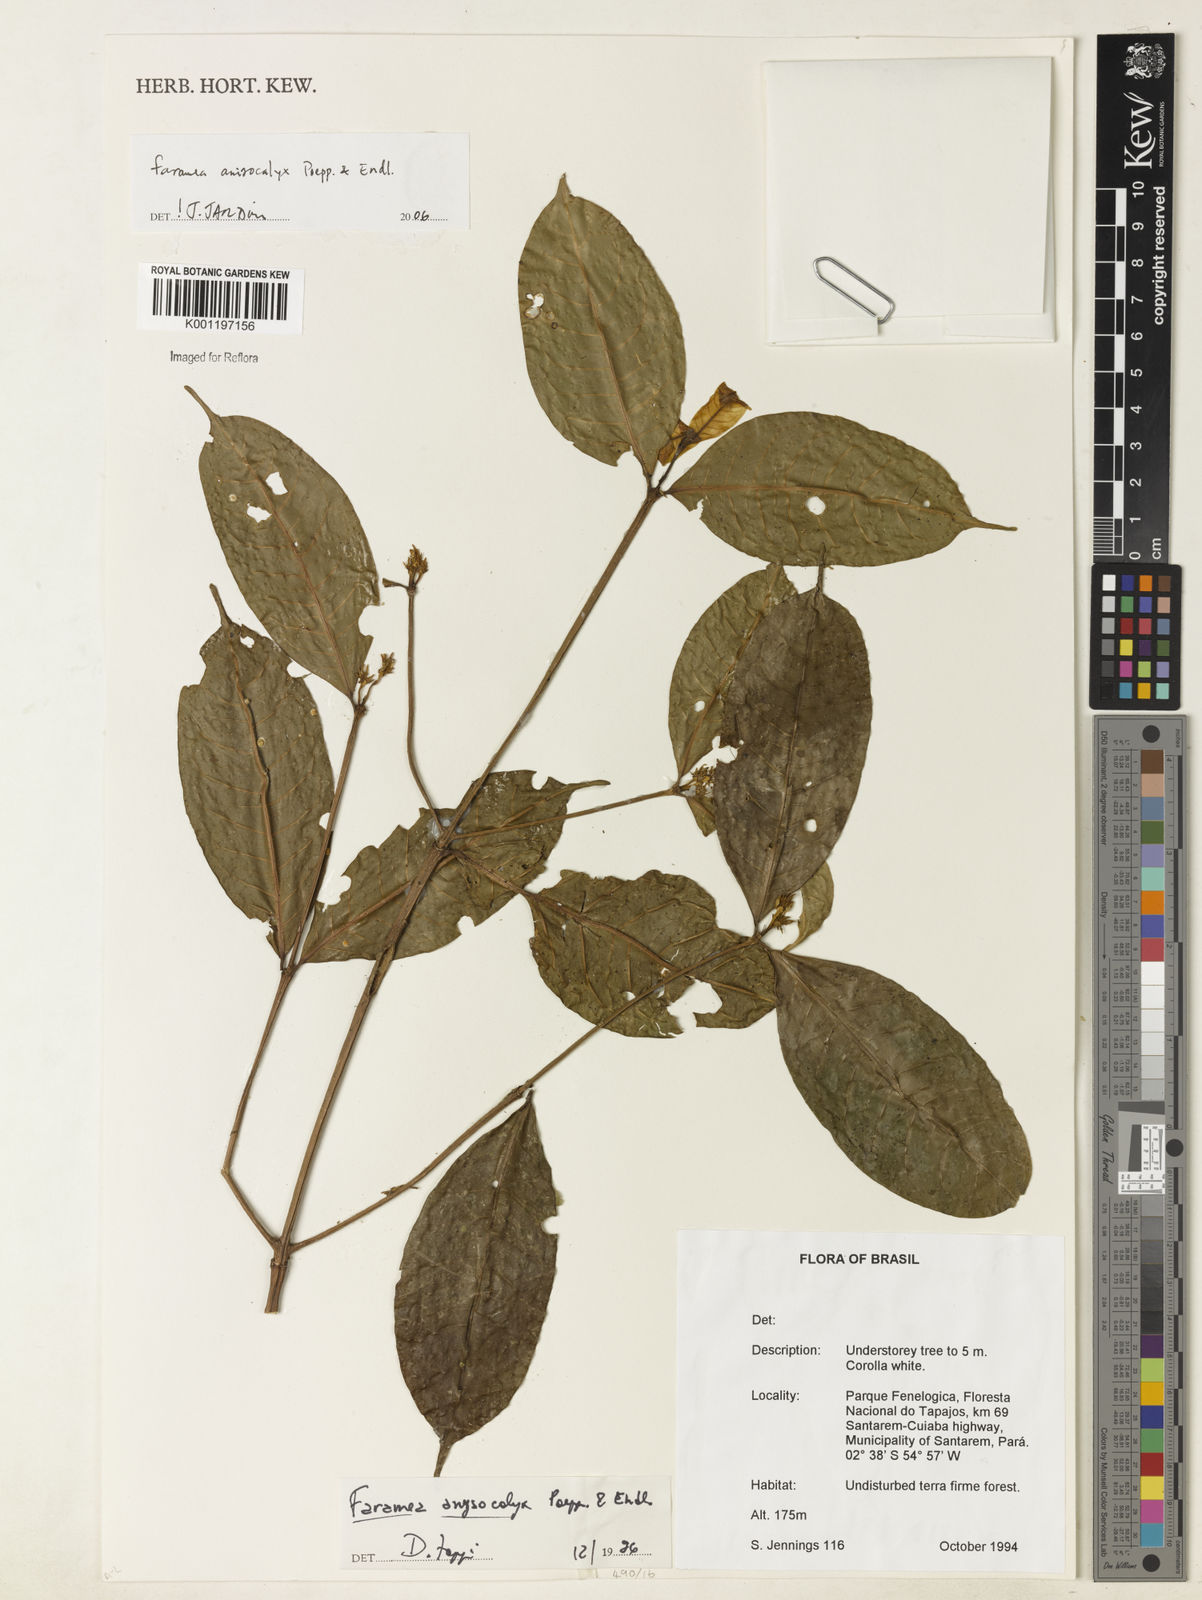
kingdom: Plantae
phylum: Tracheophyta
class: Magnoliopsida
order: Gentianales
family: Rubiaceae
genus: Faramea
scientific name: Faramea anisocalyx
